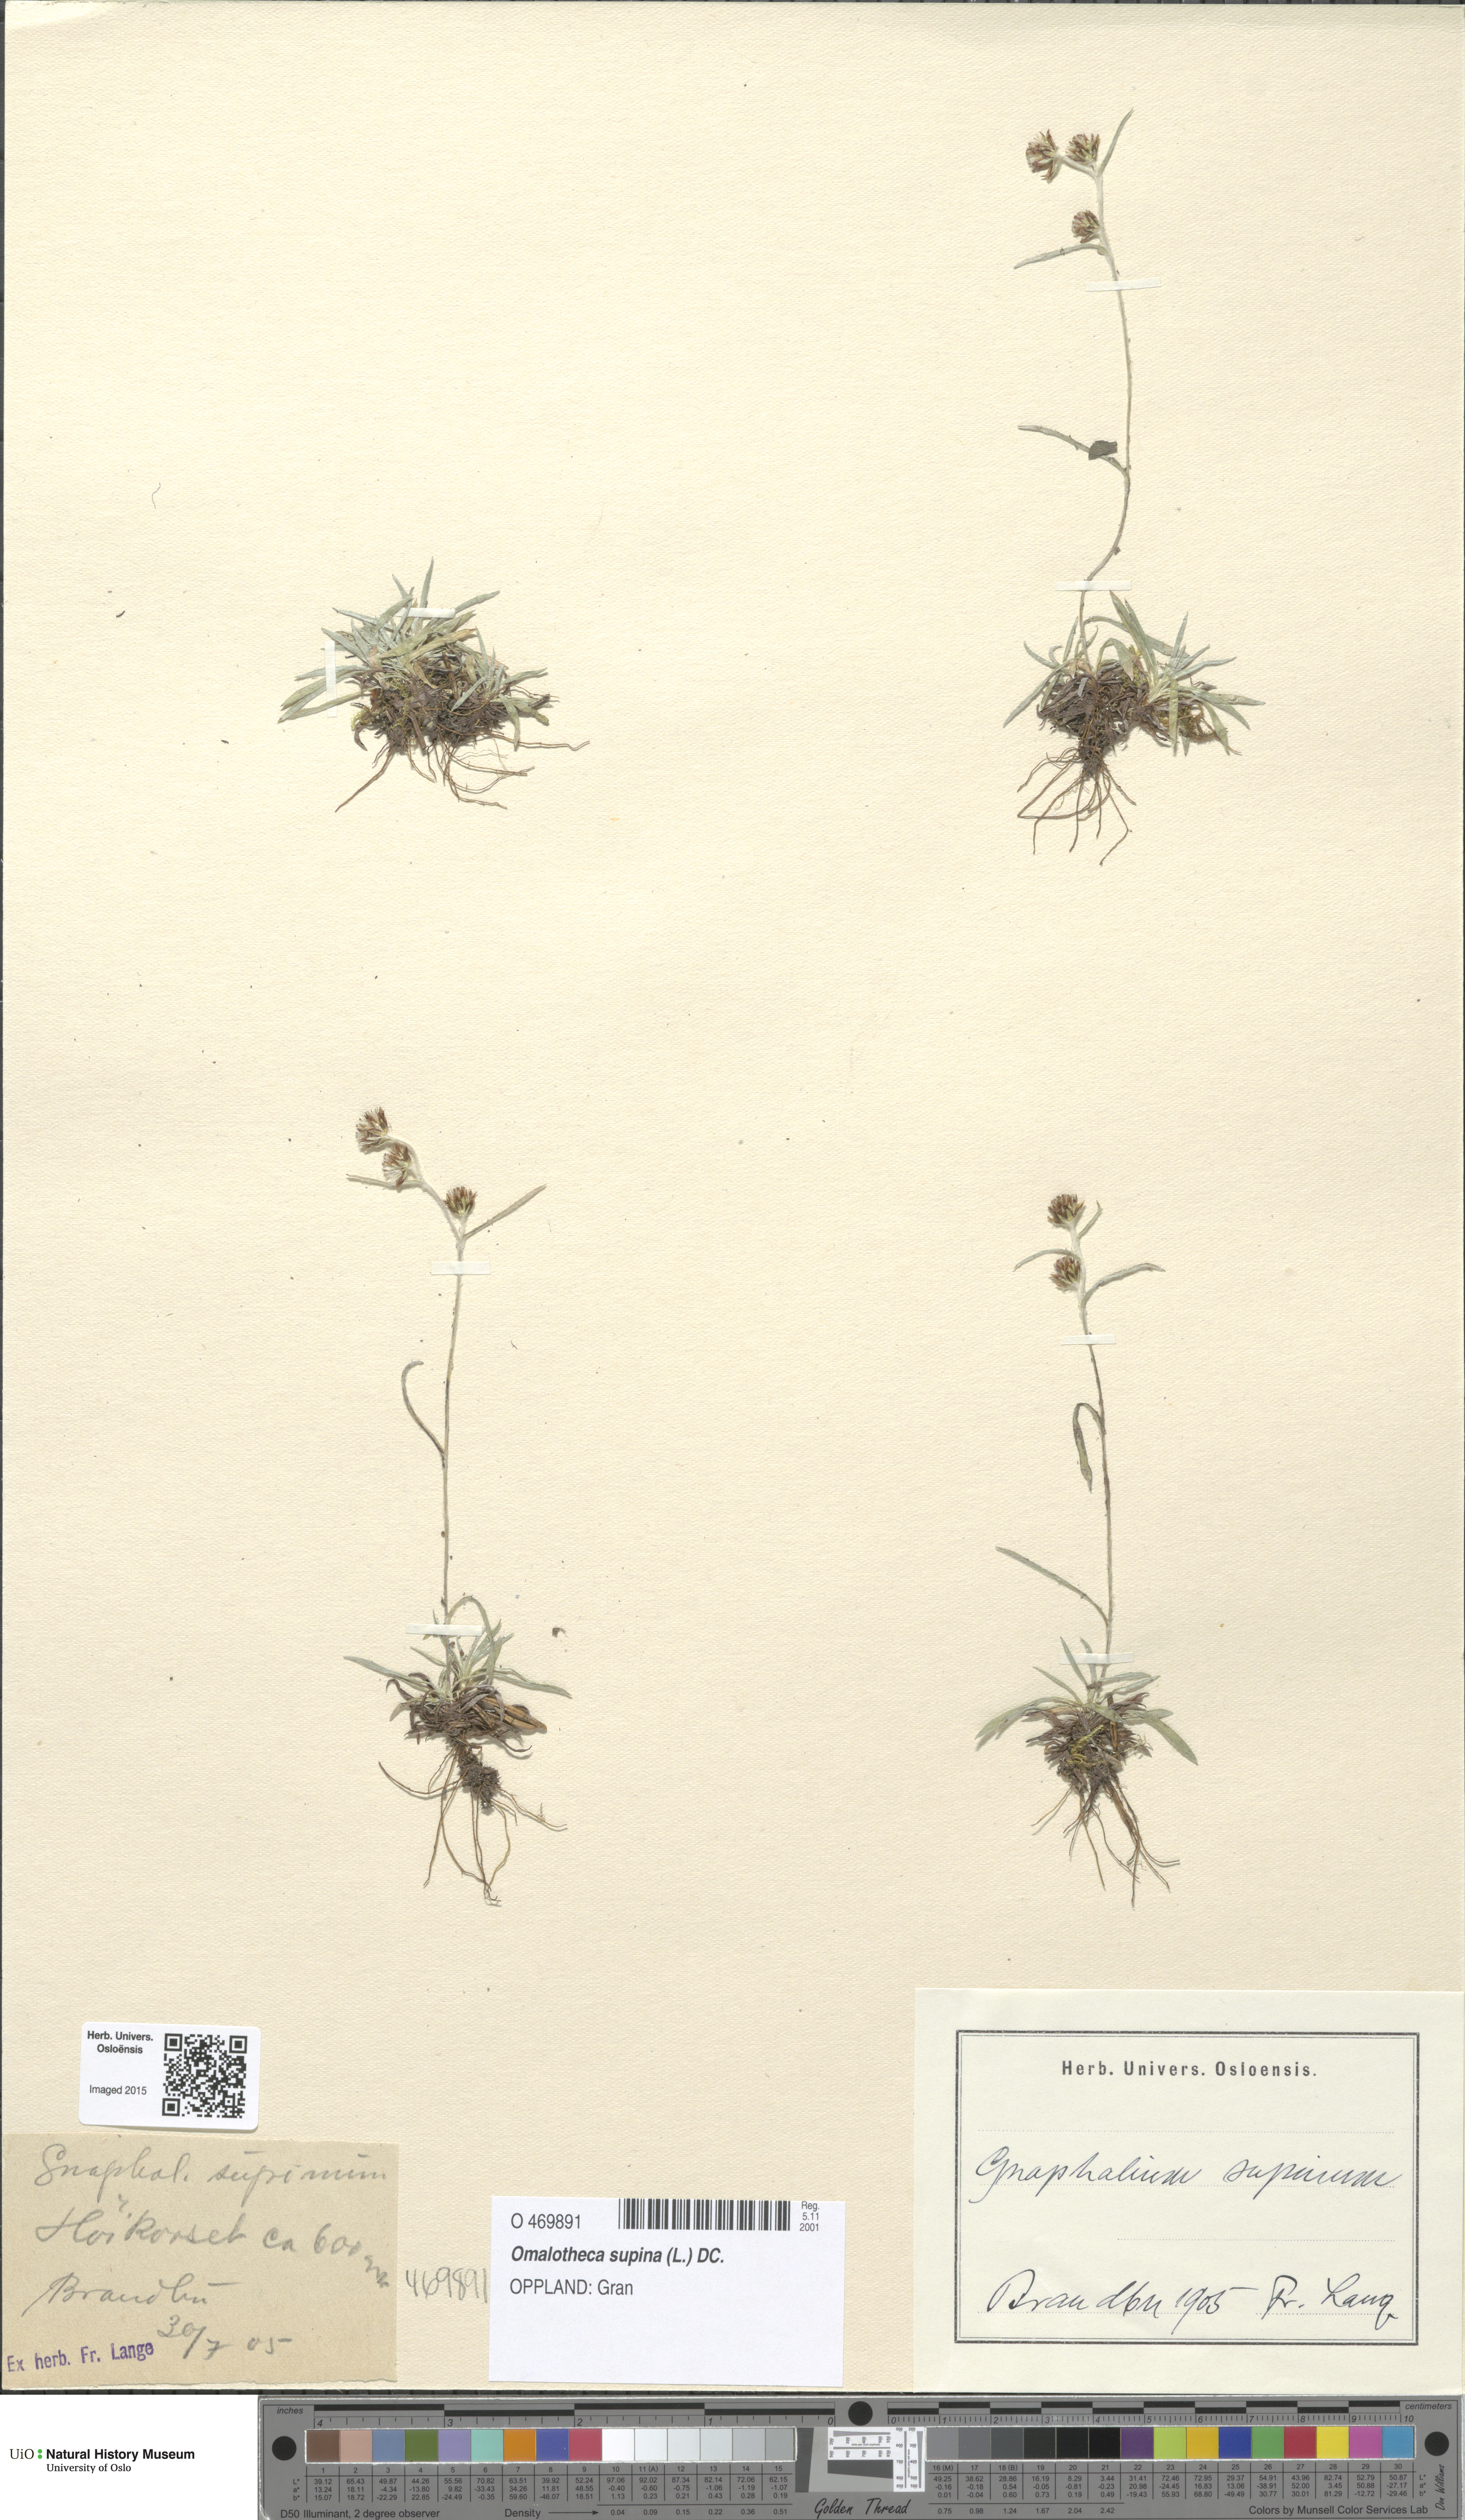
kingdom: Plantae
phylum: Tracheophyta
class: Magnoliopsida
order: Asterales
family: Asteraceae
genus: Omalotheca
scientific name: Omalotheca supina
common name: Alpine arctic-cudweed
